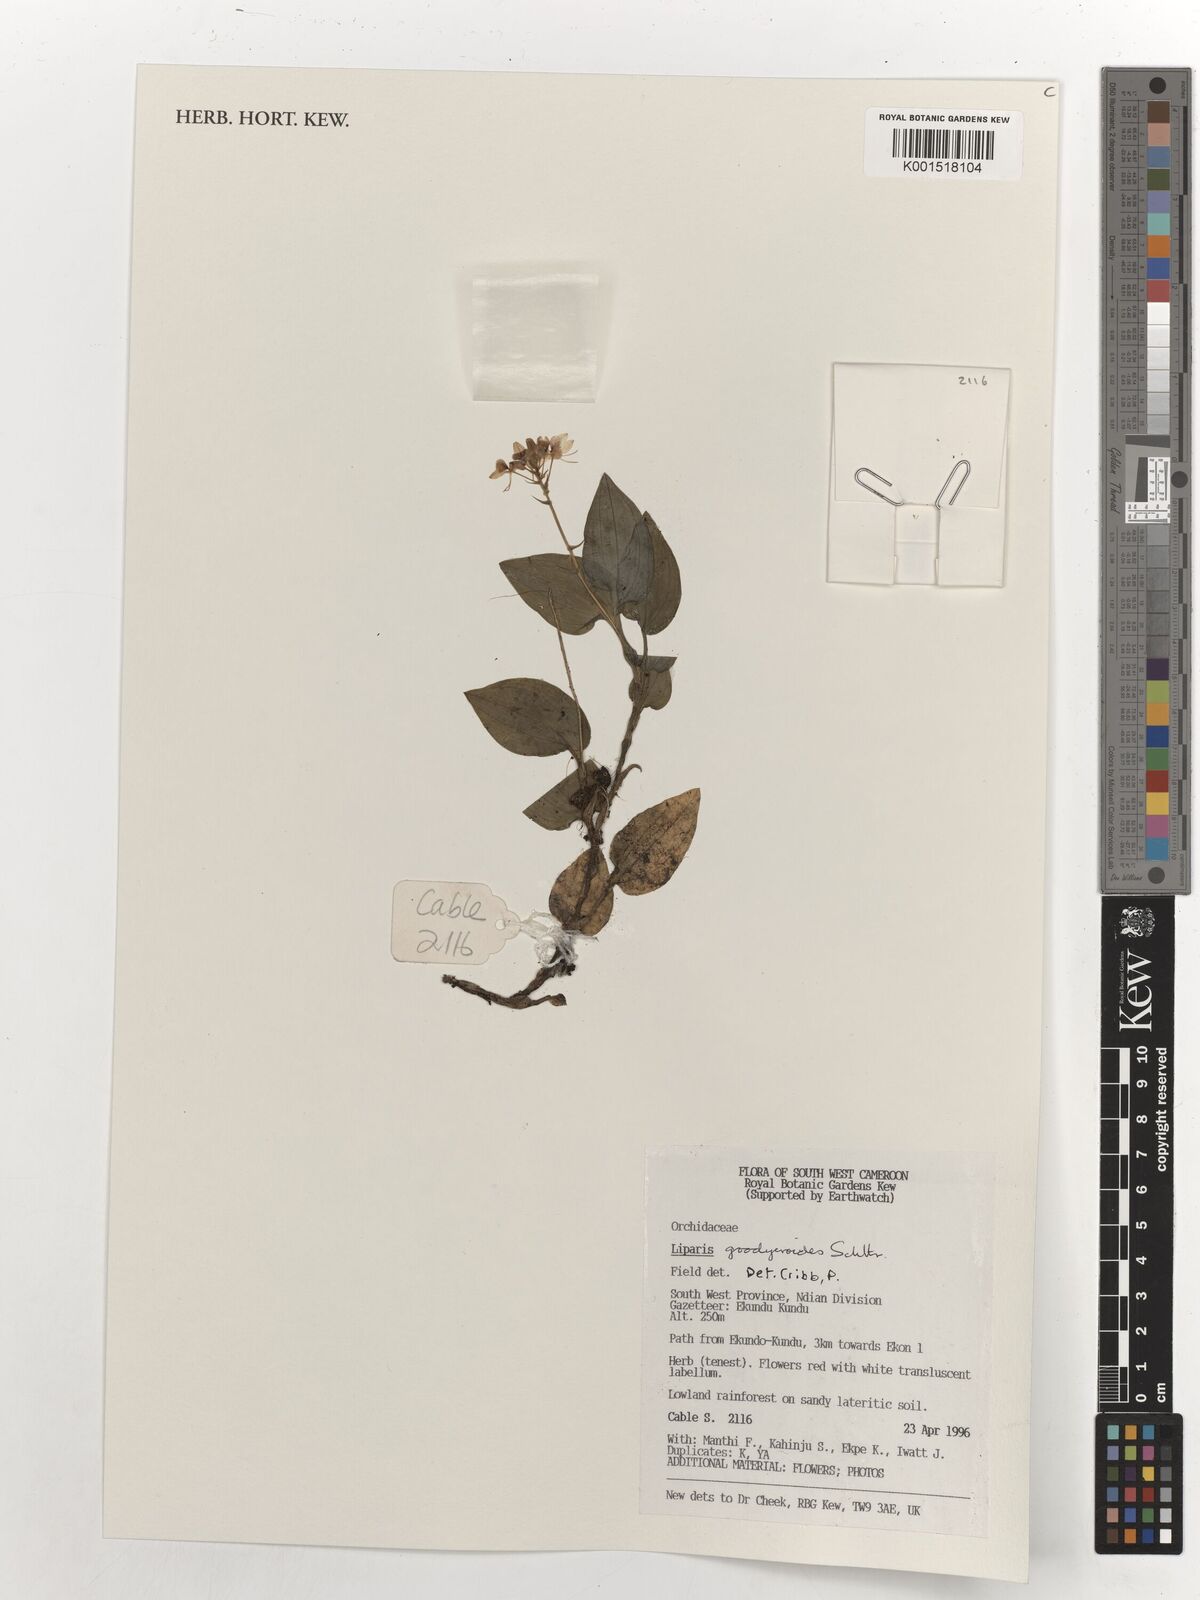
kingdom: Plantae
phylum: Tracheophyta
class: Liliopsida
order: Asparagales
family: Orchidaceae
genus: Liparis
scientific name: Liparis goodyeroides
